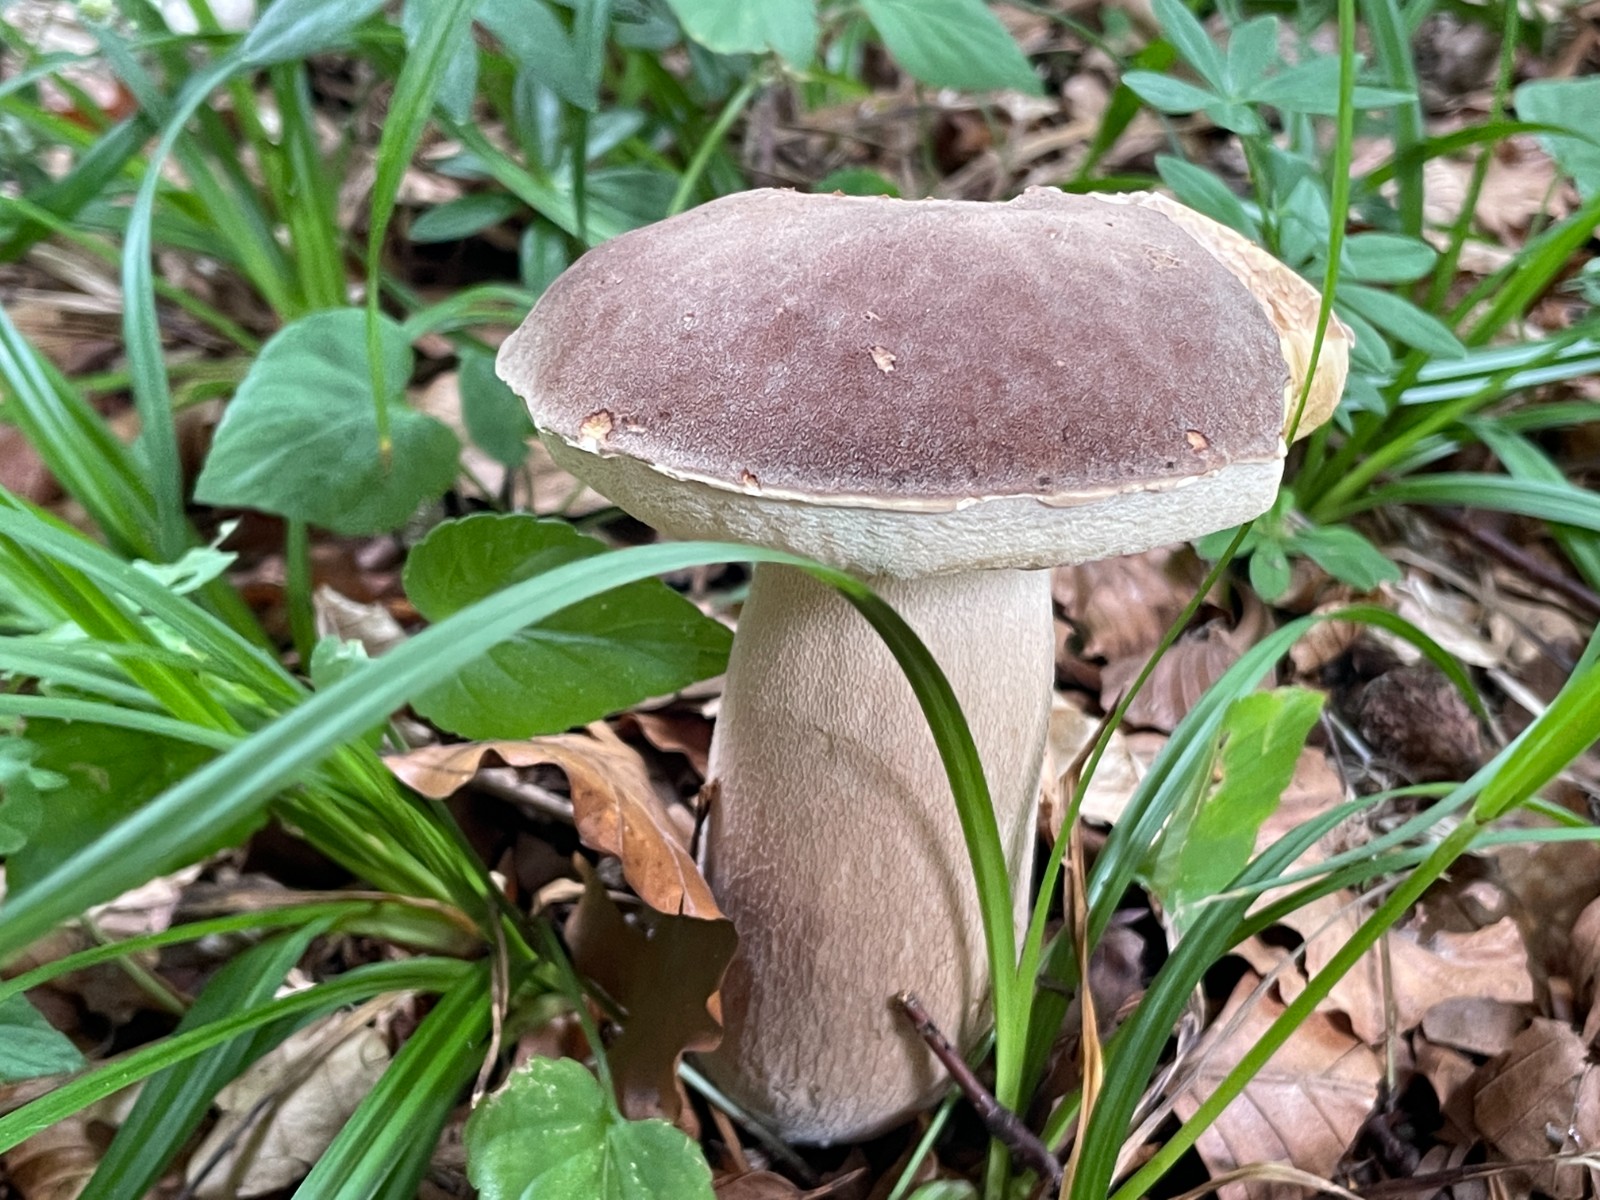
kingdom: Fungi
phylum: Basidiomycota
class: Agaricomycetes
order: Boletales
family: Boletaceae
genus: Boletus
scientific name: Boletus edulis
